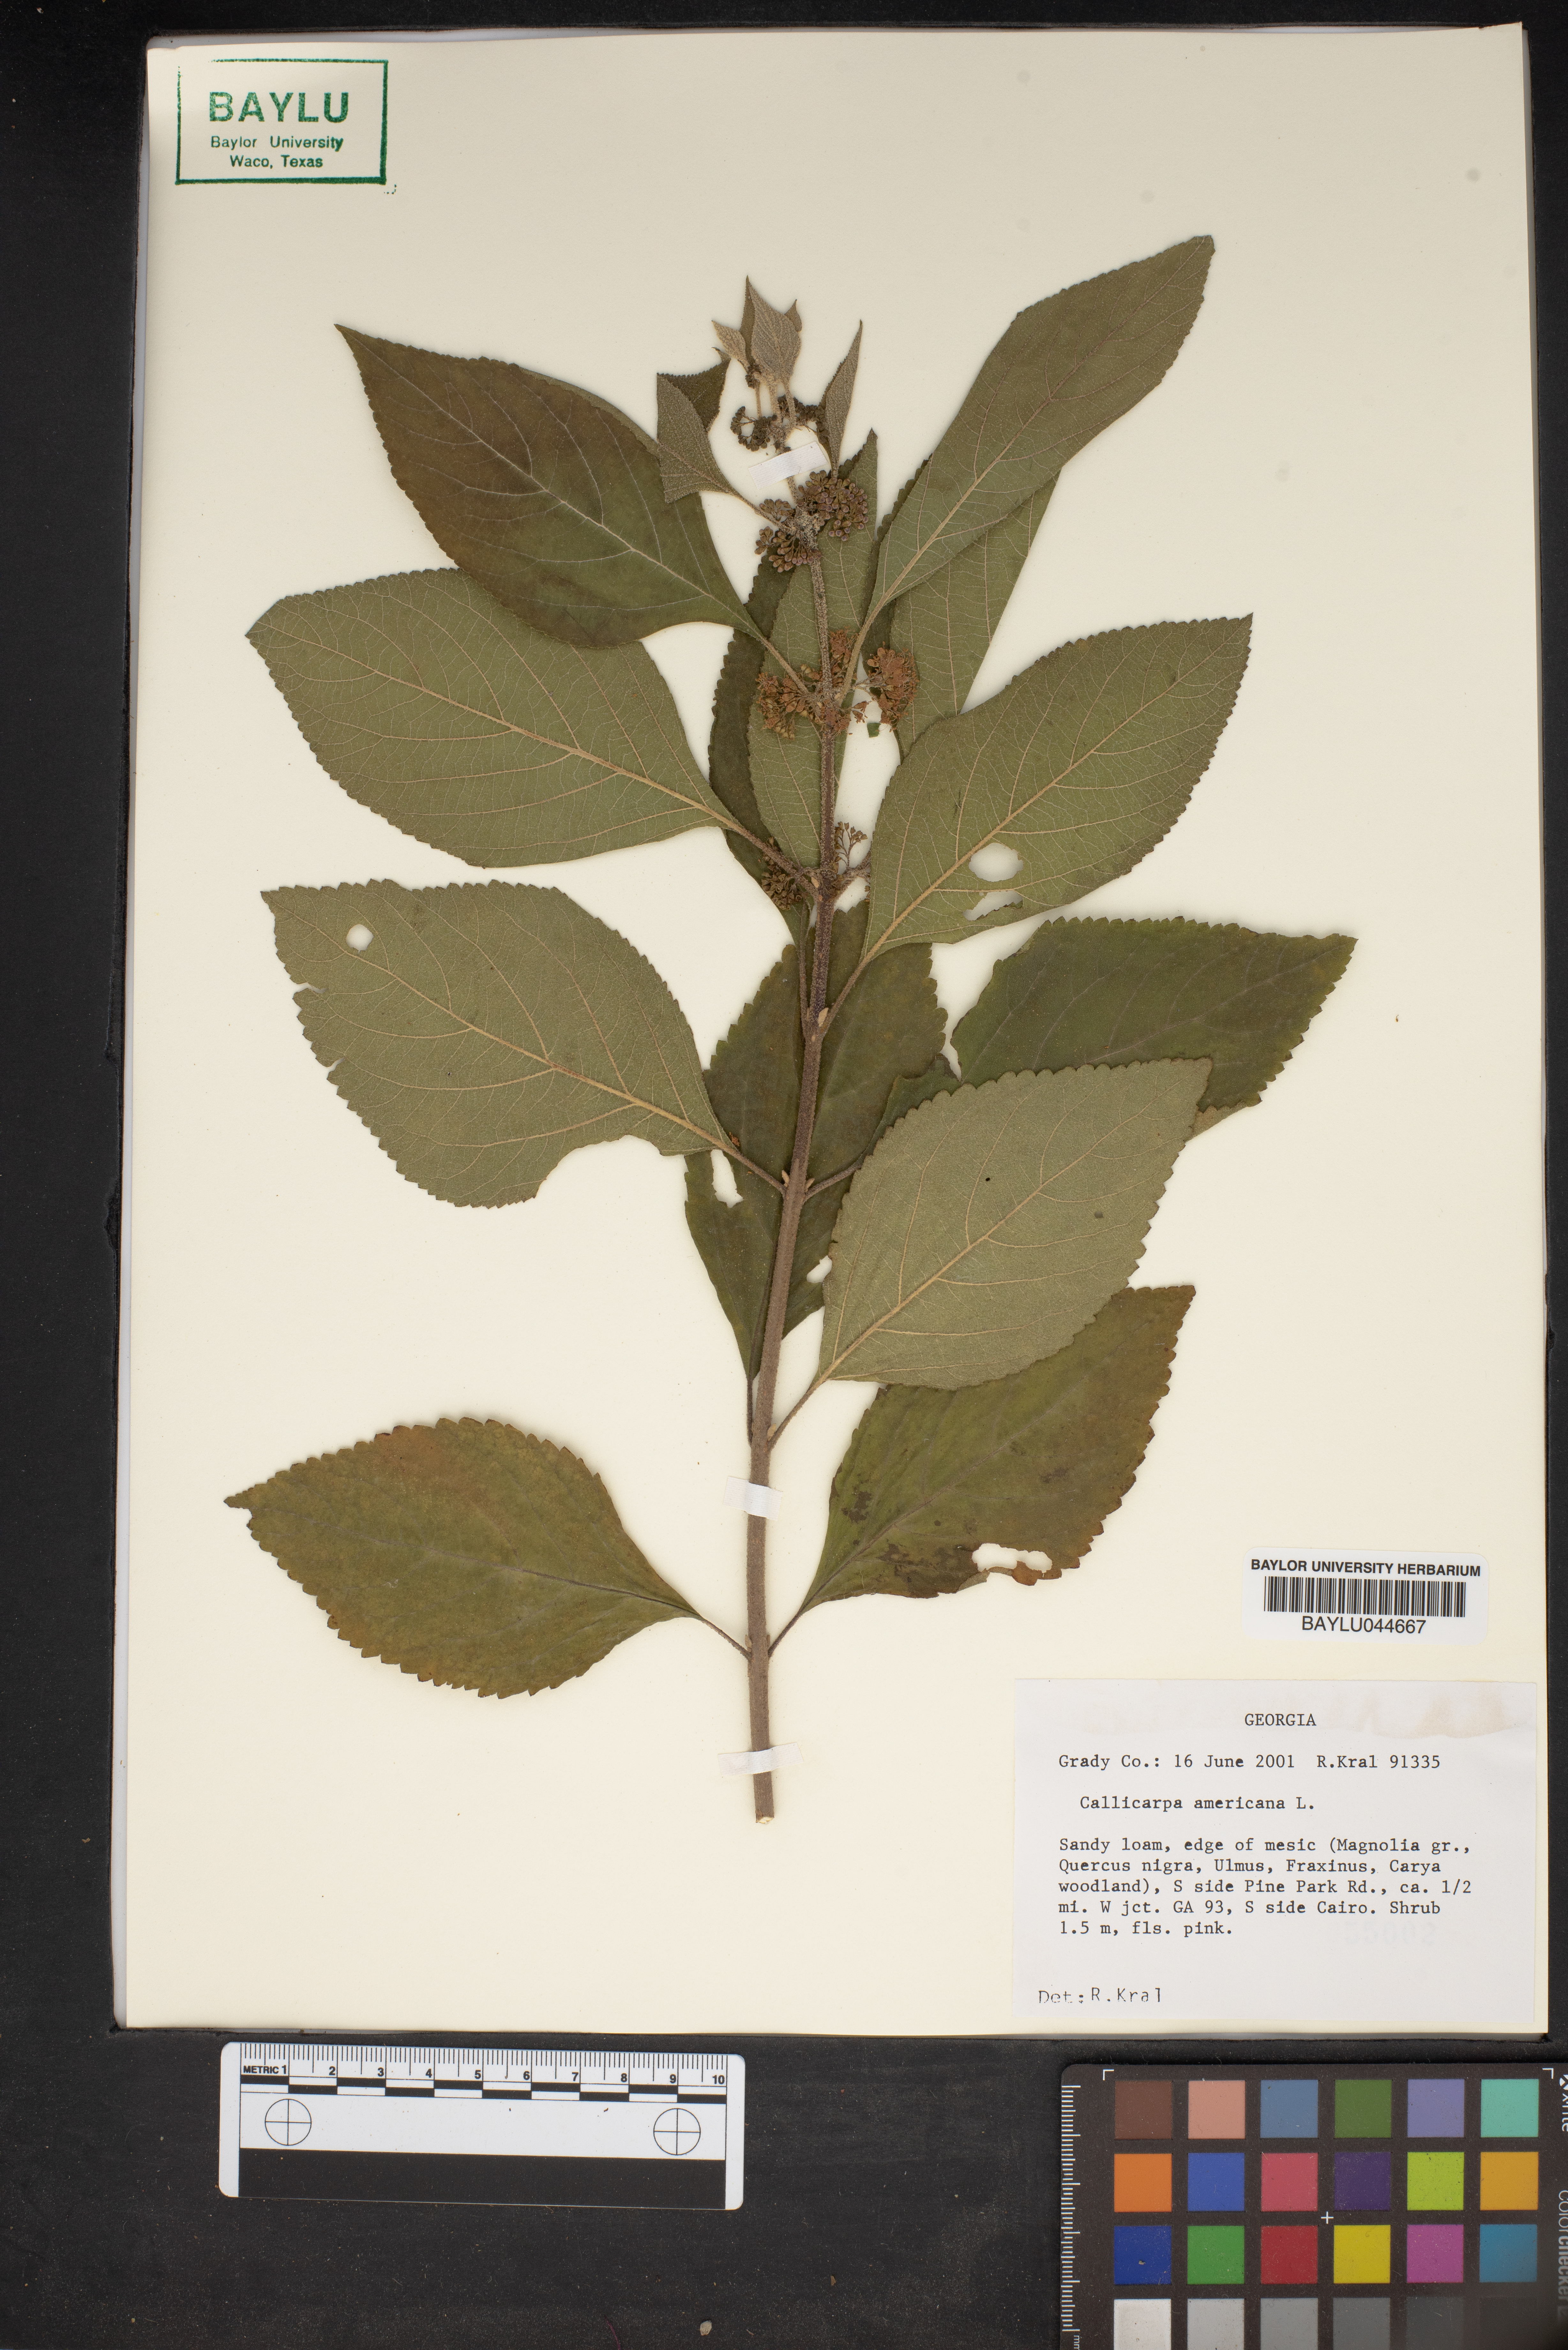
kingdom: Plantae
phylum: Tracheophyta
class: Magnoliopsida
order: Lamiales
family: Lamiaceae
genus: Callicarpa
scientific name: Callicarpa americana
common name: American beautyberry
